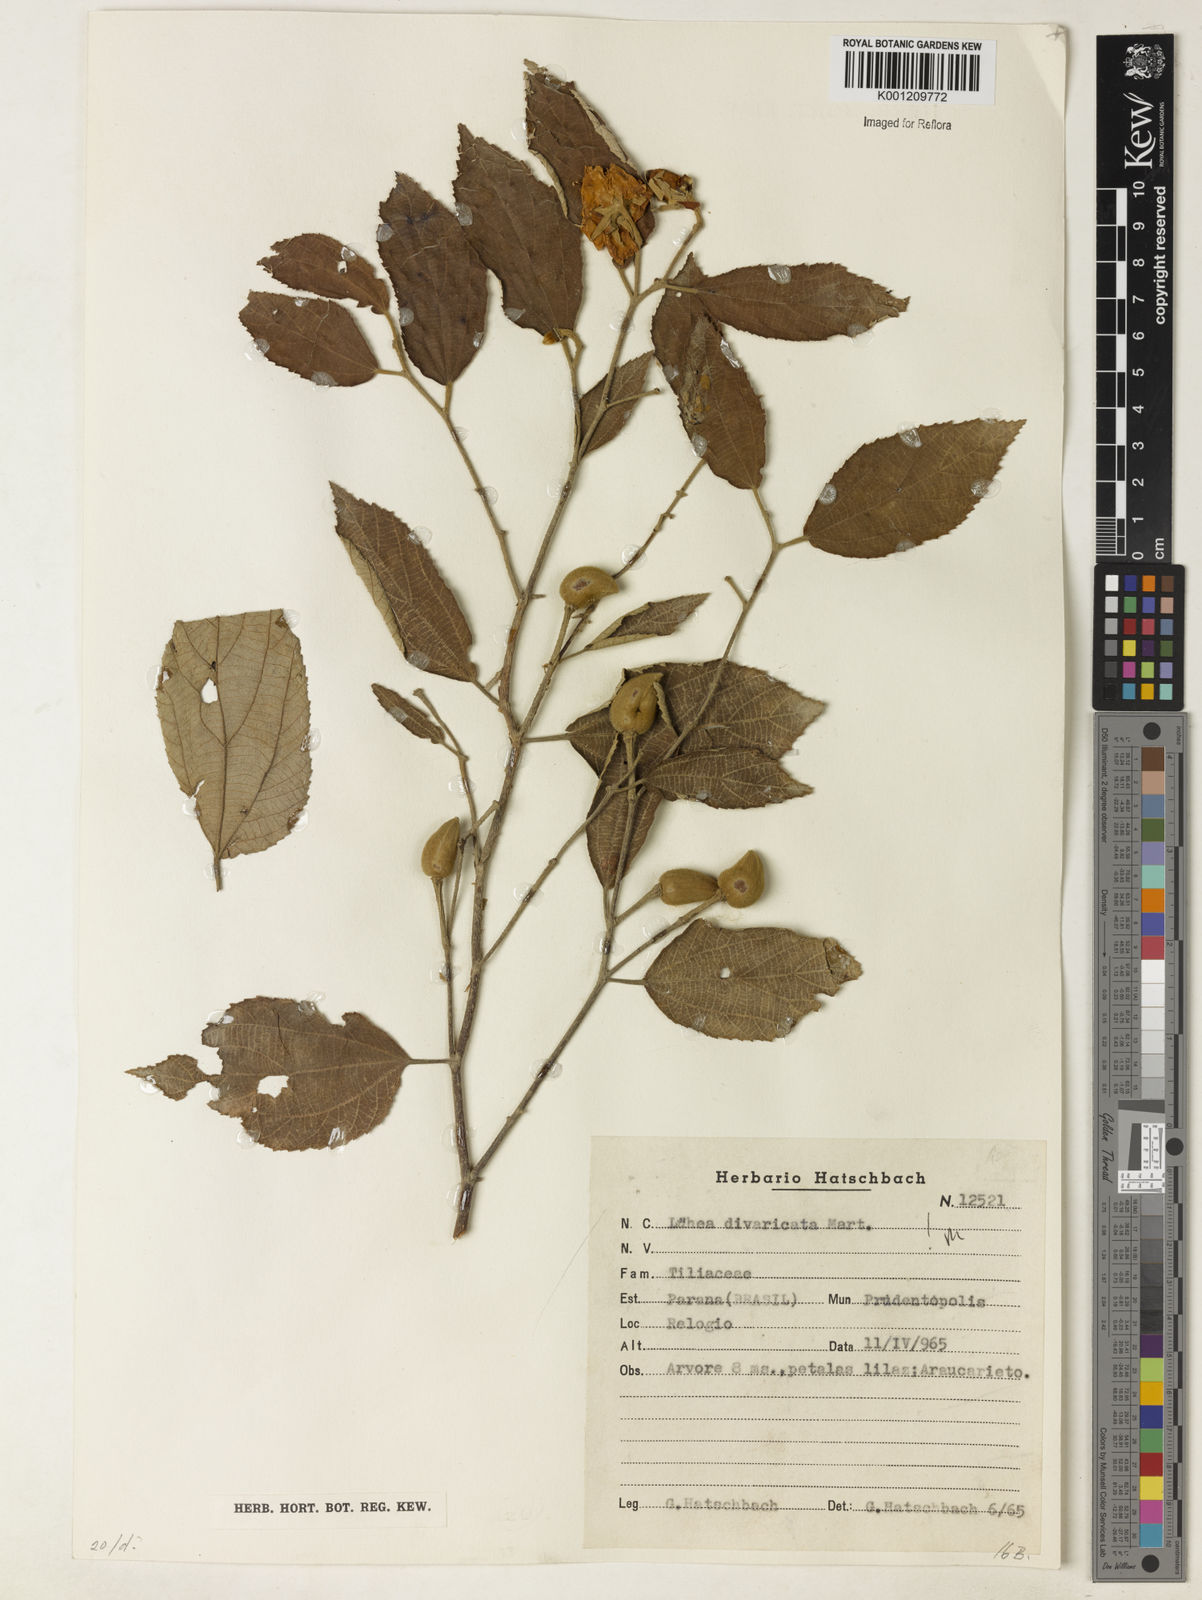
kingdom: Plantae
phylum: Tracheophyta
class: Magnoliopsida
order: Malvales
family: Malvaceae
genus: Luehea
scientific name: Luehea divaricata
